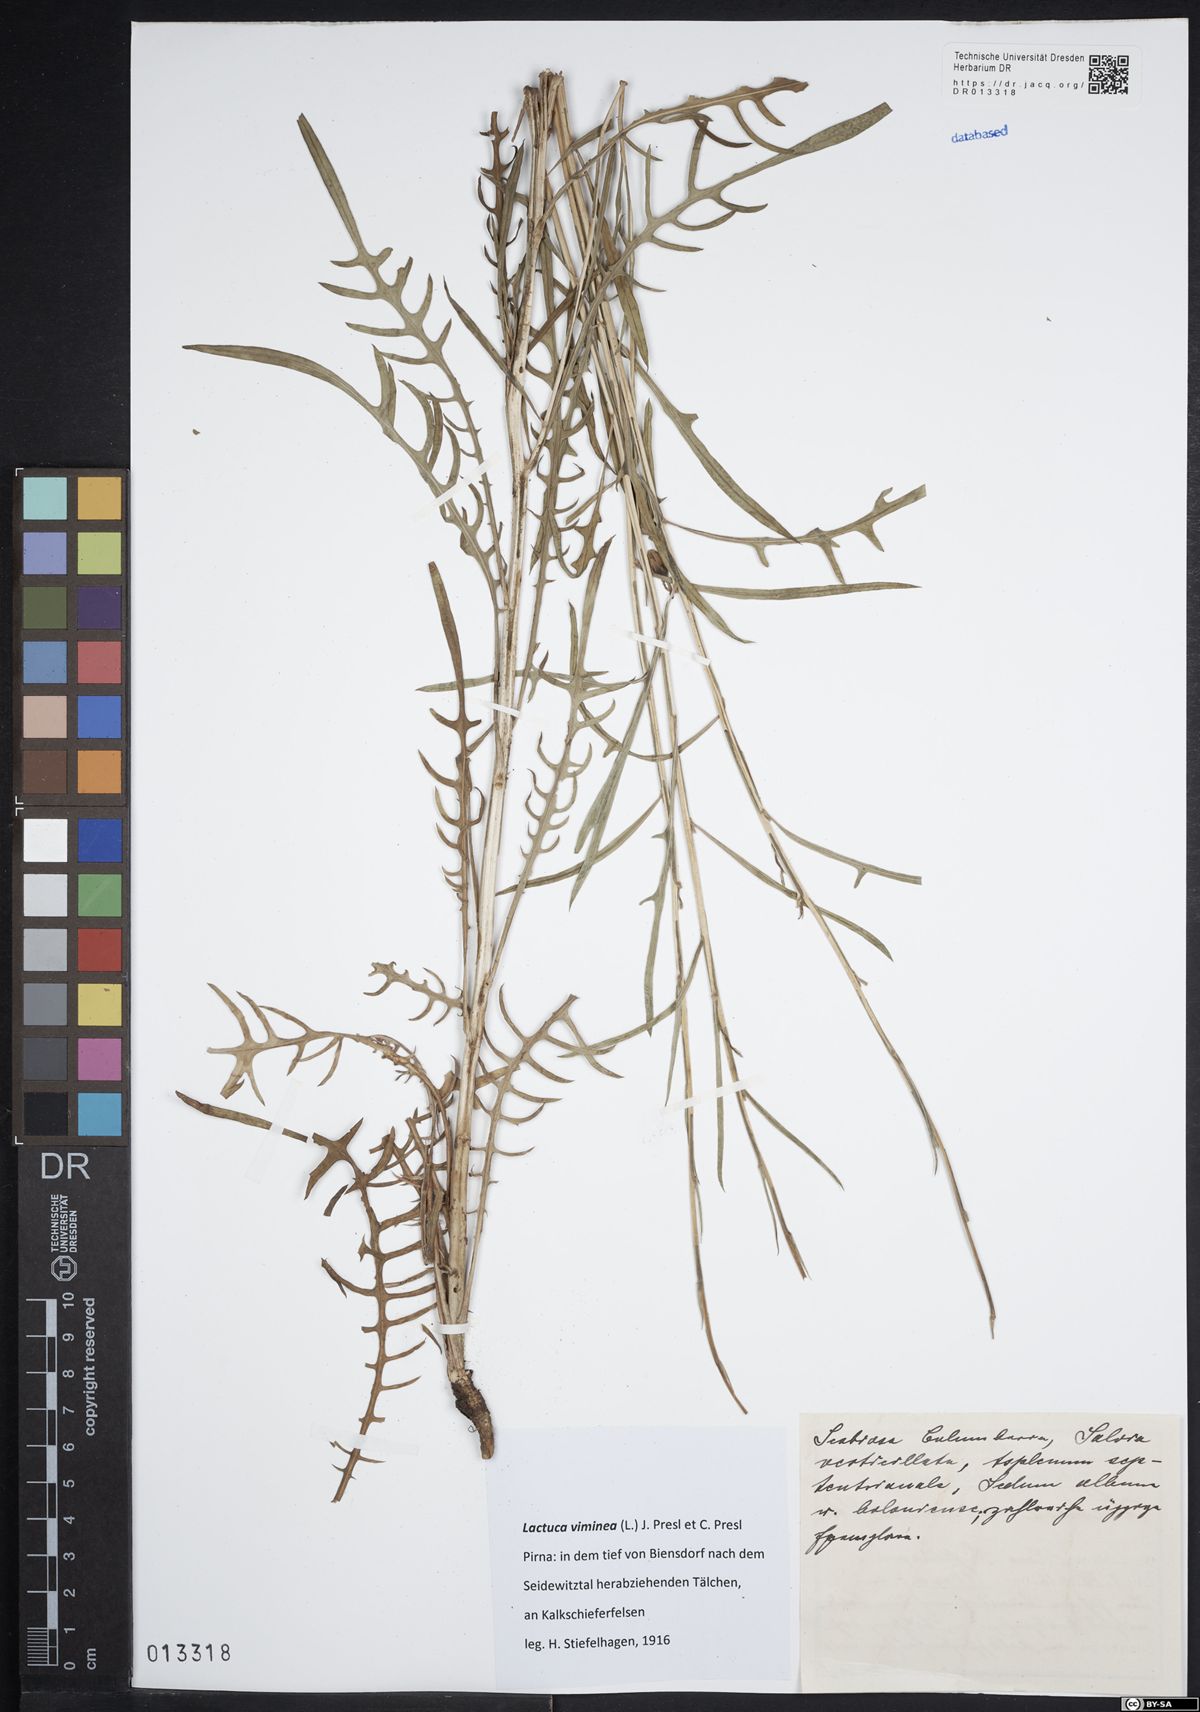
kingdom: Plantae
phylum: Tracheophyta
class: Magnoliopsida
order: Asterales
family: Asteraceae
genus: Lactuca
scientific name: Lactuca viminea
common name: Pliant lettuce
